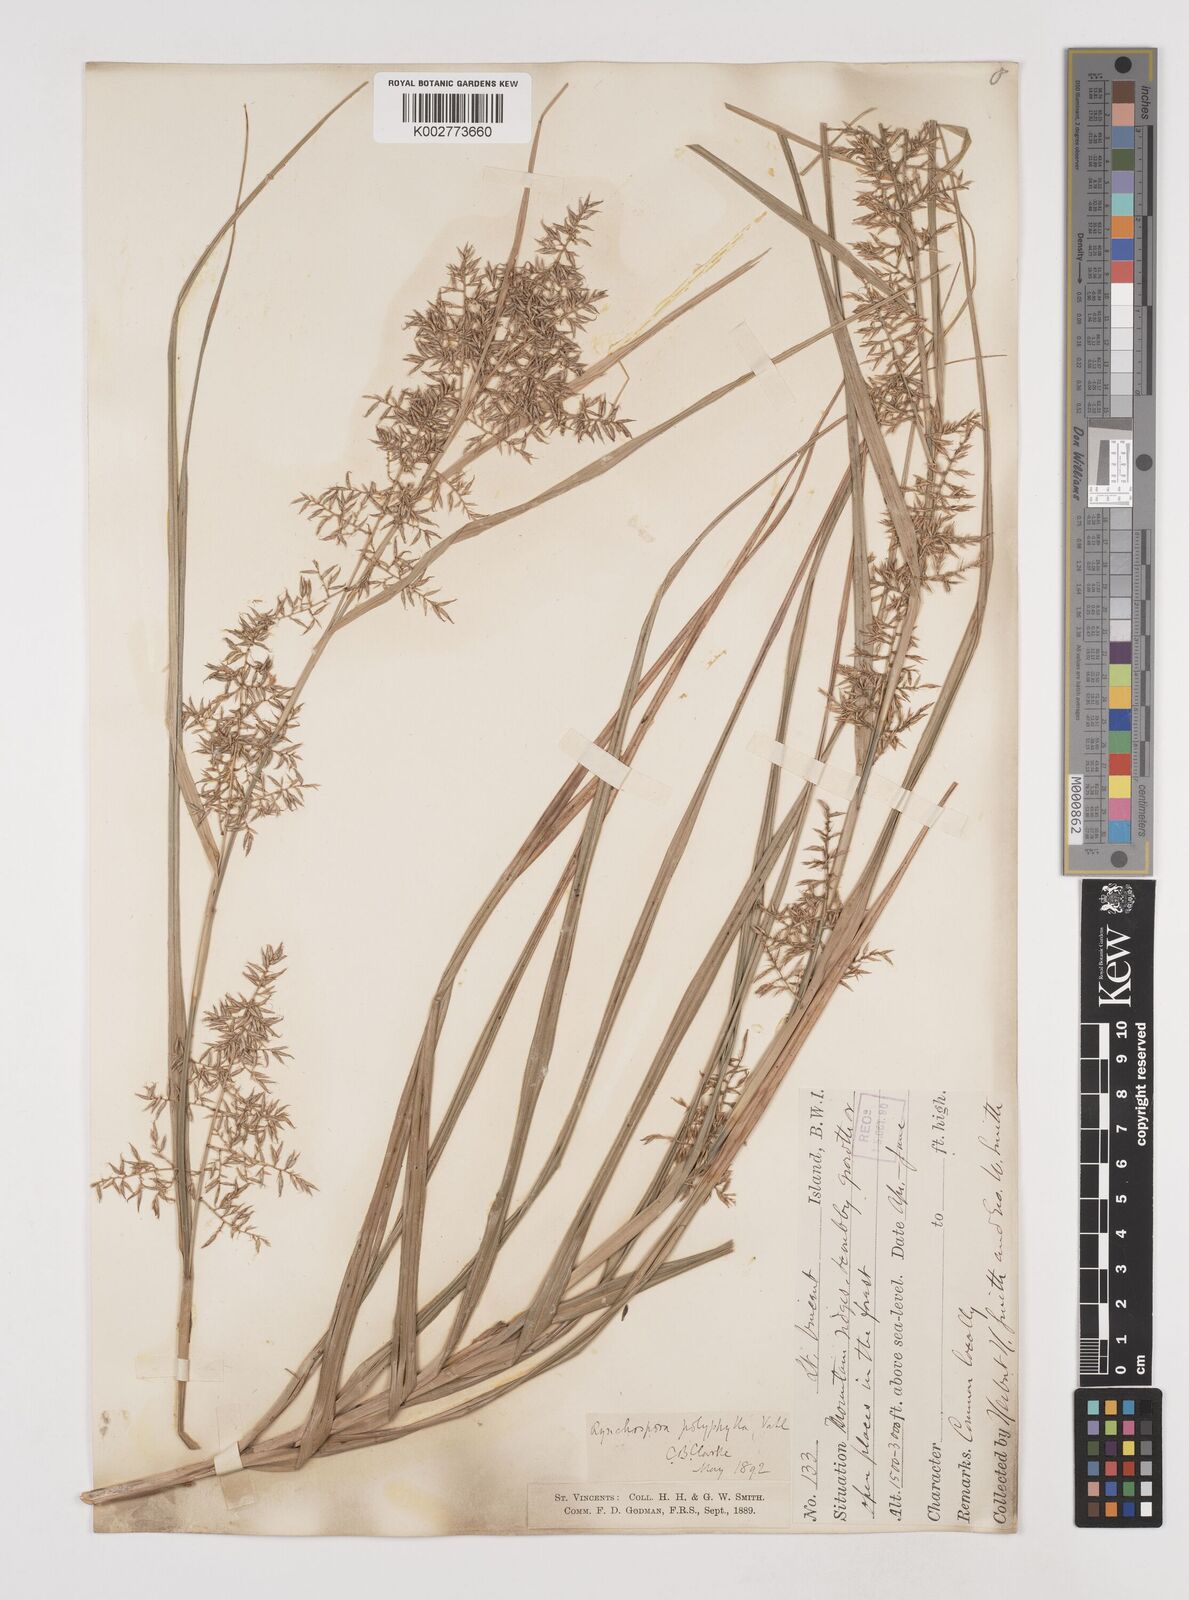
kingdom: Plantae
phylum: Tracheophyta
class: Liliopsida
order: Poales
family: Cyperaceae
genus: Rhynchospora
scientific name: Rhynchospora polyphylla
